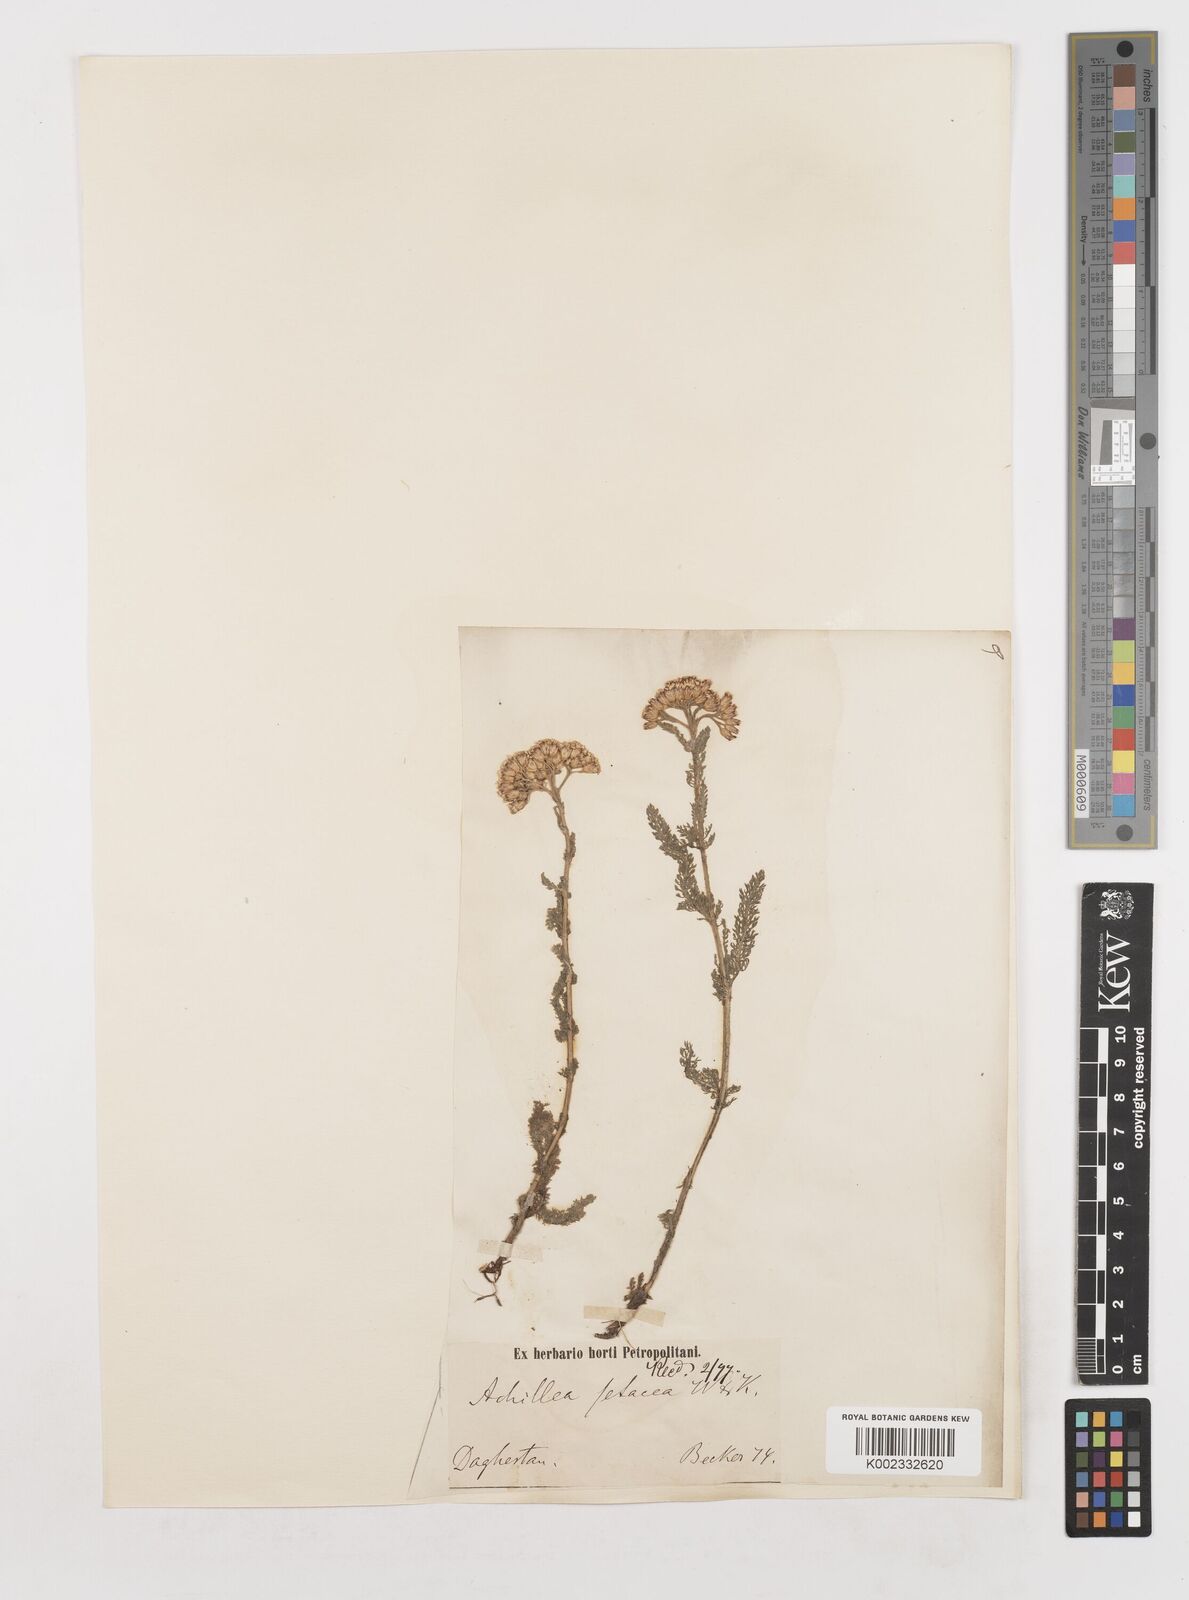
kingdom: Plantae
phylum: Tracheophyta
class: Magnoliopsida
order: Asterales
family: Asteraceae
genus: Achillea
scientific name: Achillea setacea
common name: Bristly yarrow
